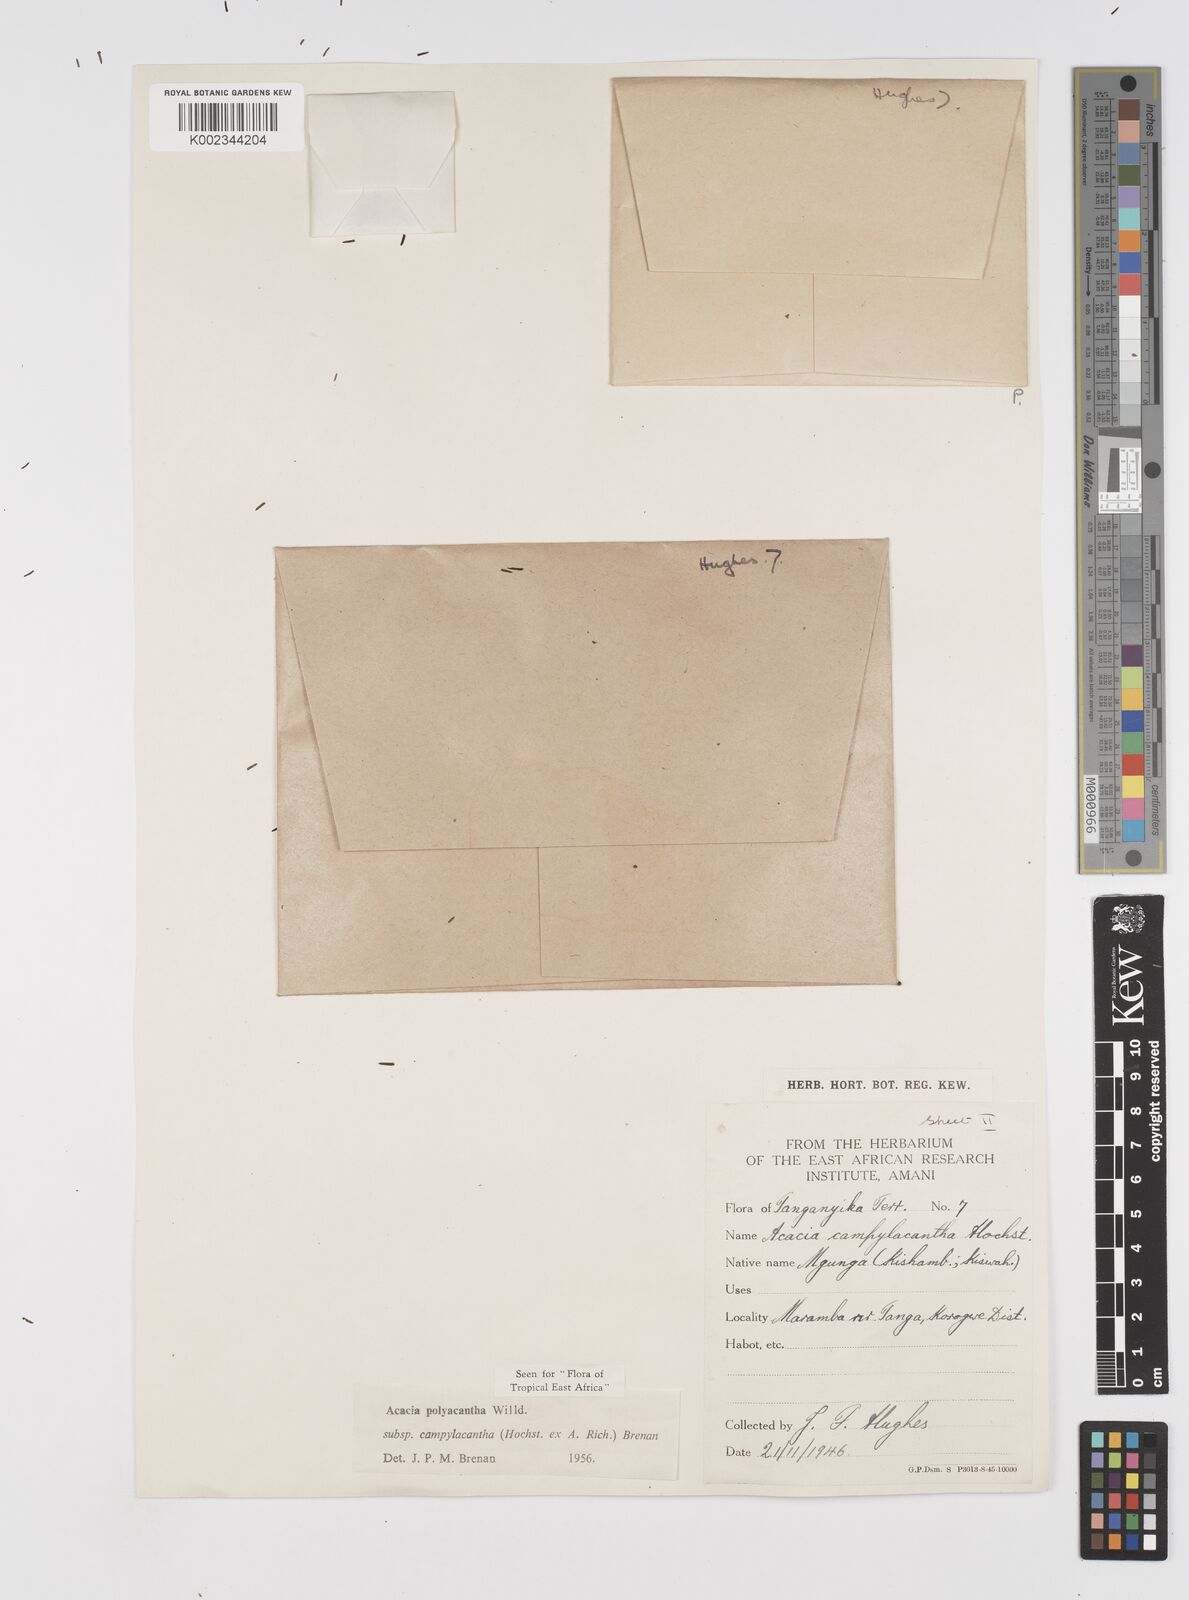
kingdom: Plantae
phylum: Tracheophyta
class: Magnoliopsida
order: Fabales
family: Fabaceae
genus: Senegalia
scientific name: Senegalia polyacantha
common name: Whitethorn
